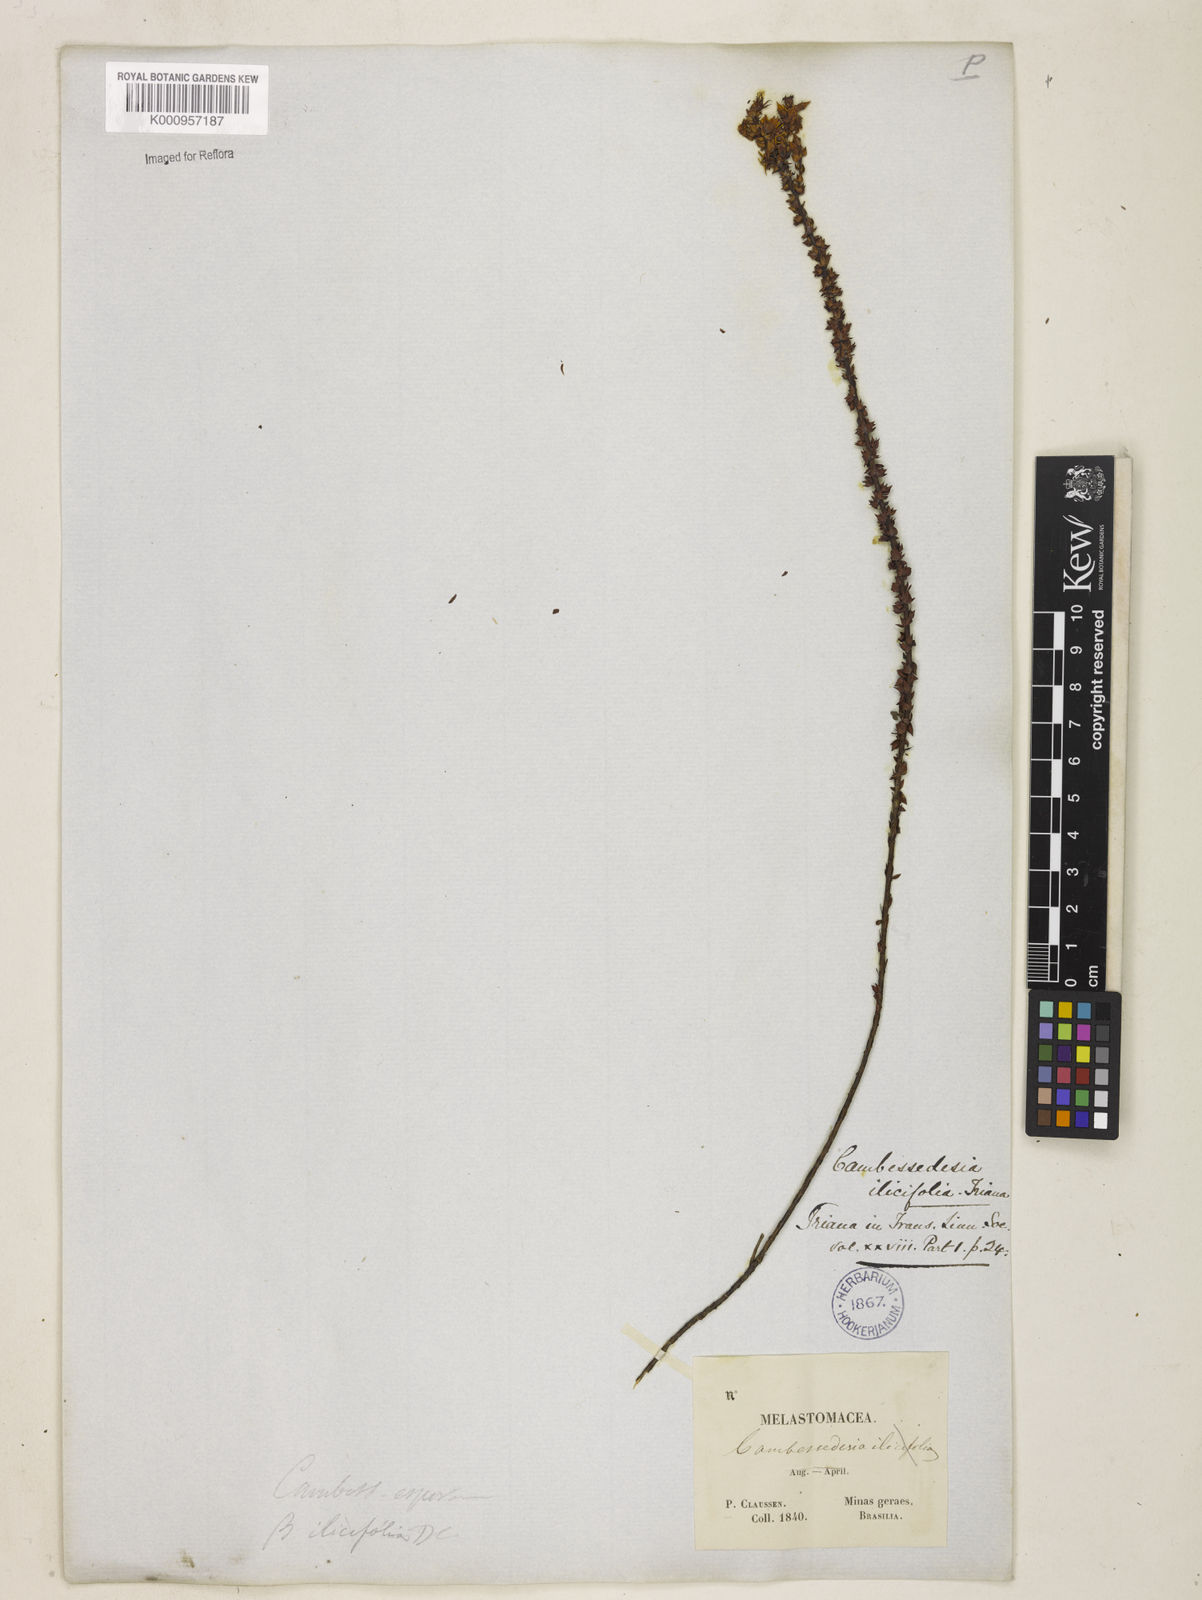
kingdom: Plantae
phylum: Tracheophyta
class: Magnoliopsida
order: Myrtales
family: Melastomataceae
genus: Cambessedesia
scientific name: Cambessedesia espora
